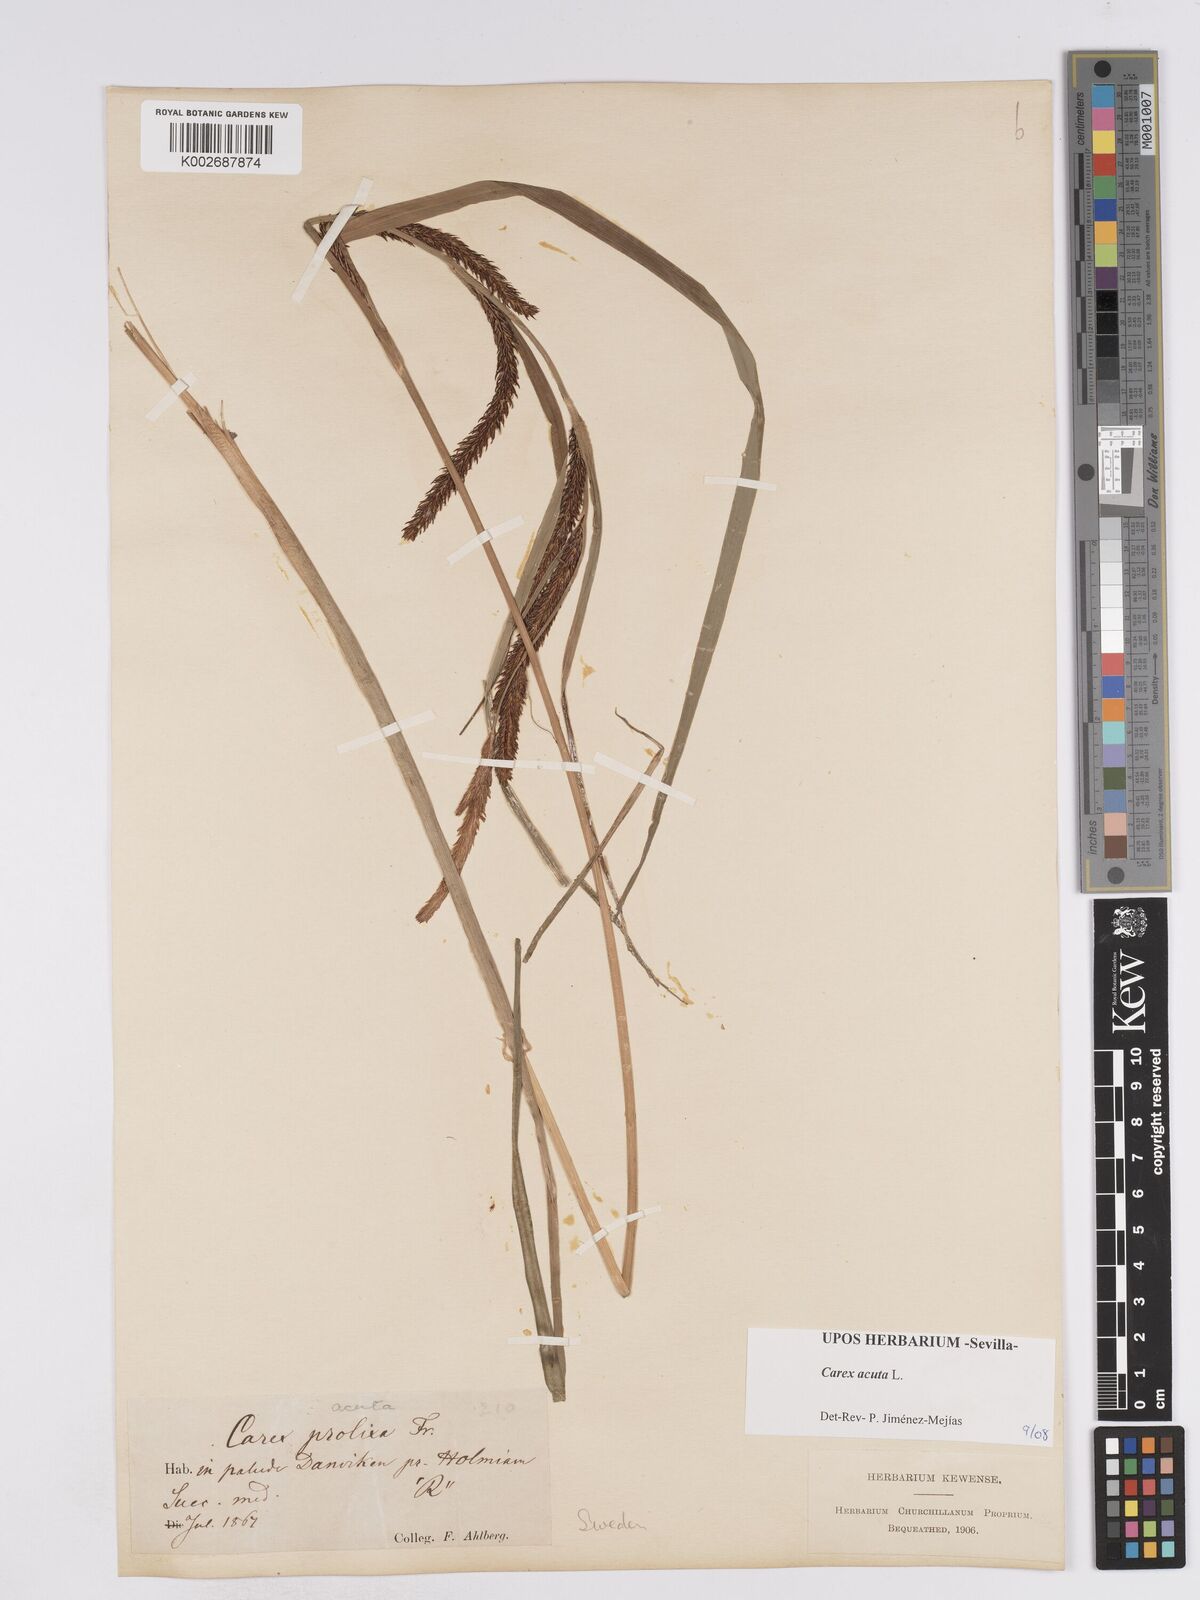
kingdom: Plantae
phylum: Tracheophyta
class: Liliopsida
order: Poales
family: Cyperaceae
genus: Carex
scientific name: Carex acuta
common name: Slender tufted-sedge
